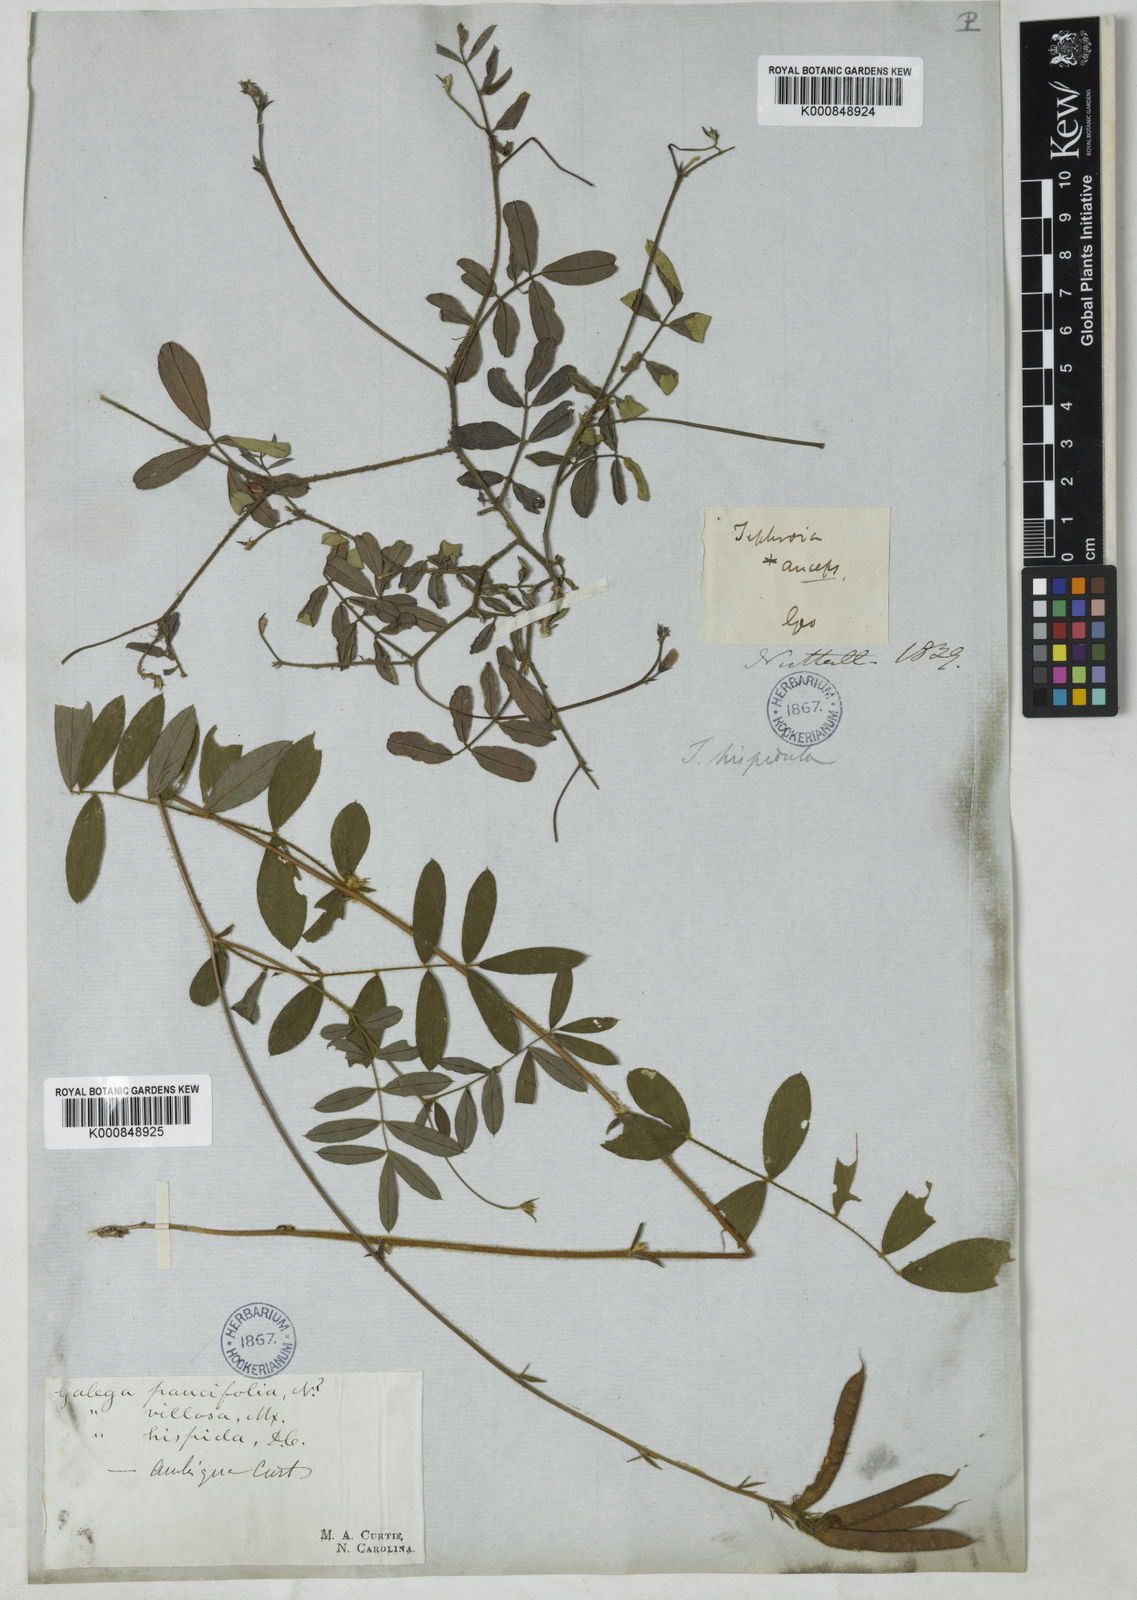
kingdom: Plantae
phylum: Tracheophyta
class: Magnoliopsida
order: Fabales
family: Fabaceae
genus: Tephrosia
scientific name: Tephrosia hispidula
